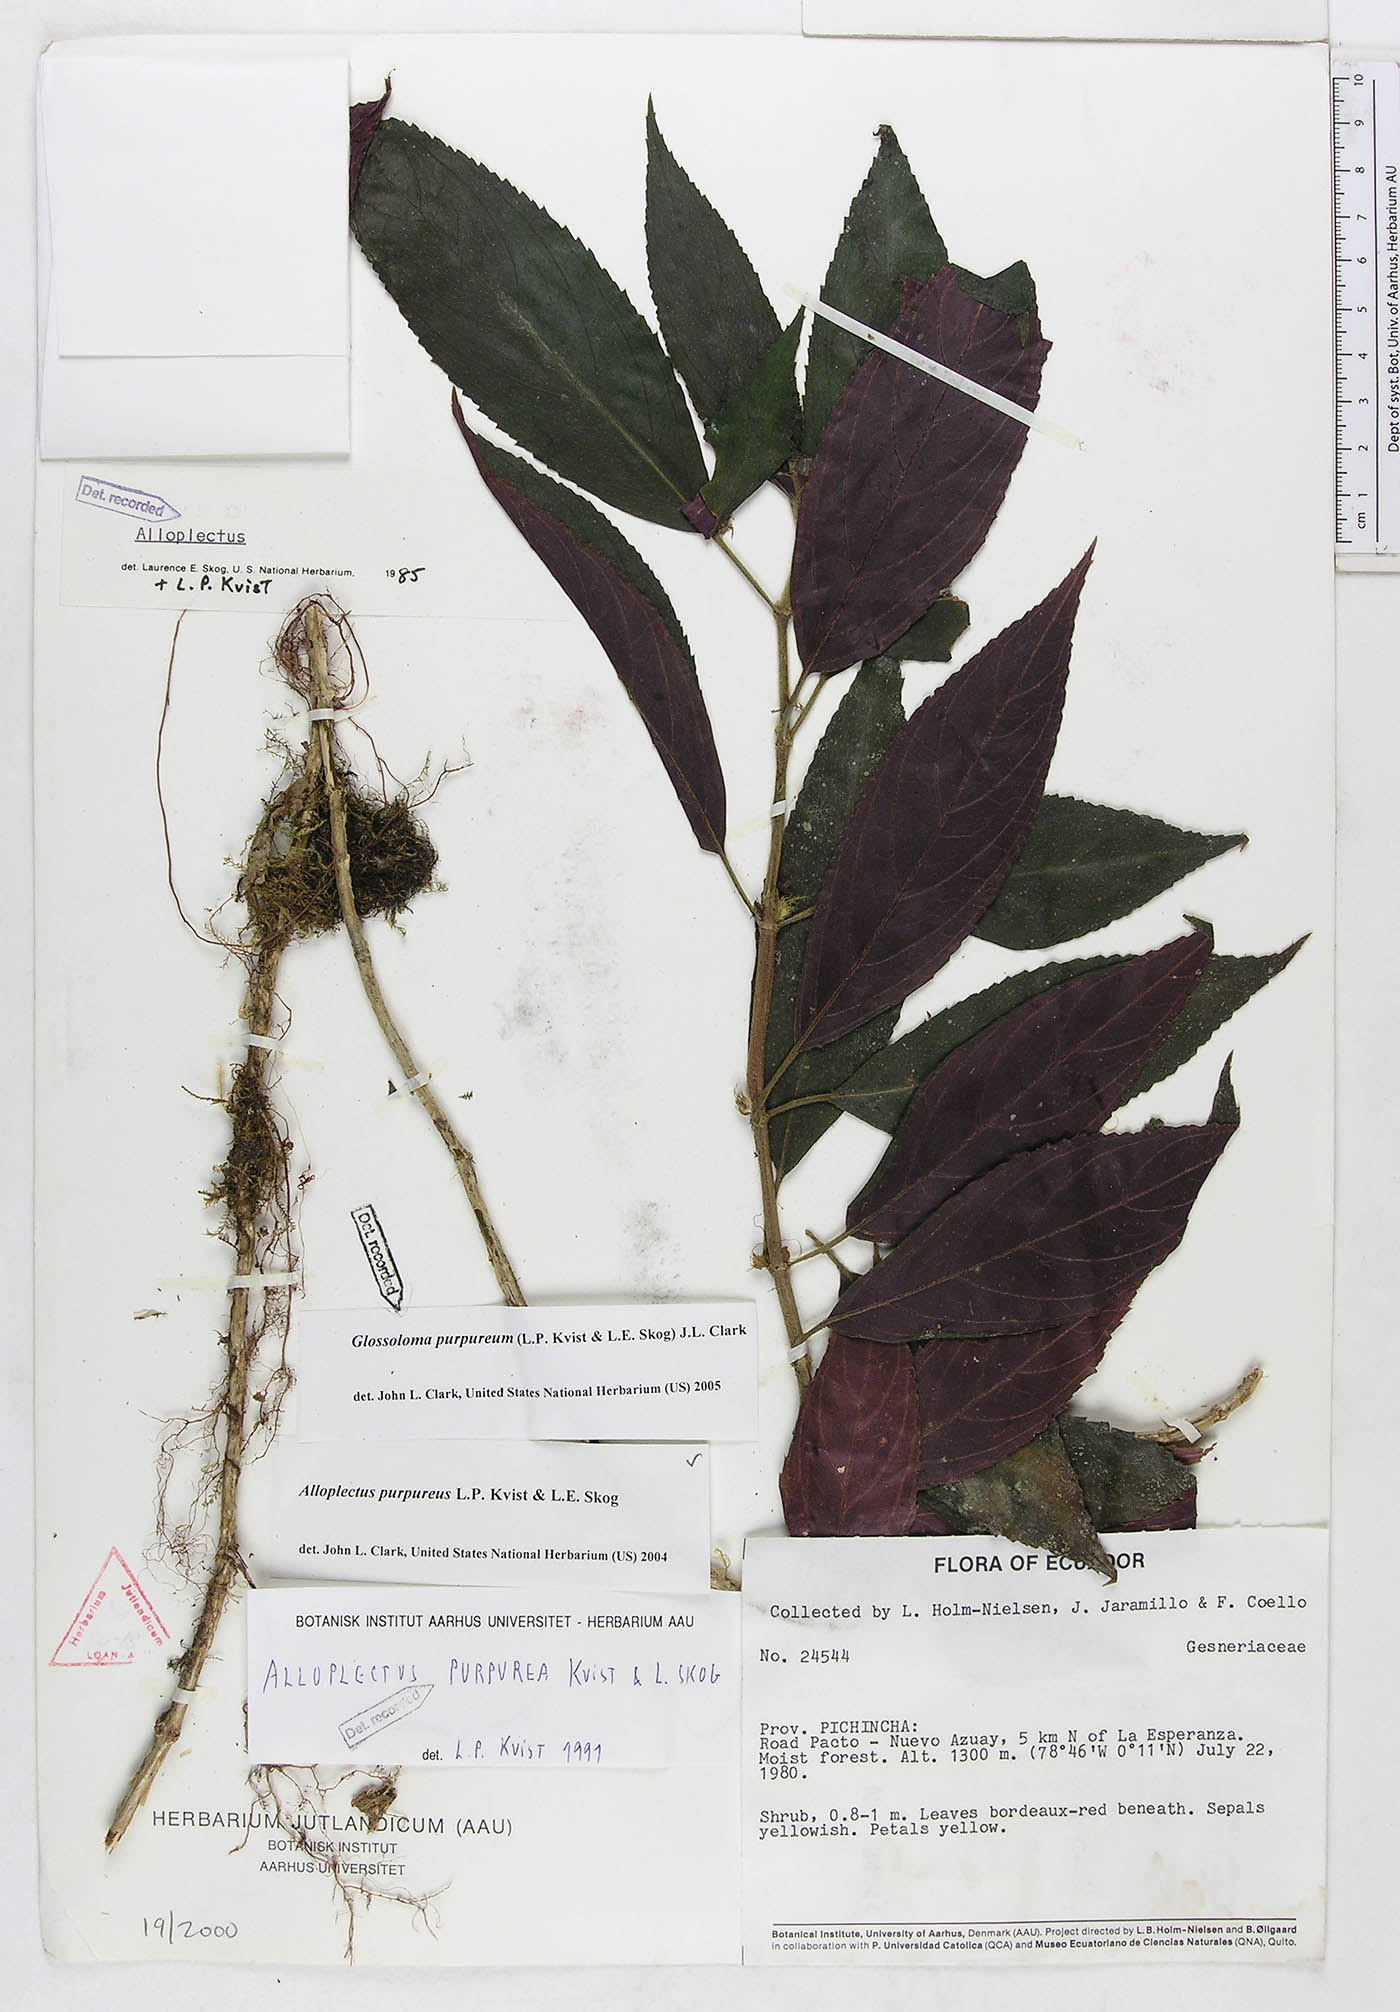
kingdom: Plantae
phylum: Tracheophyta
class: Magnoliopsida
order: Lamiales
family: Gesneriaceae
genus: Glossoloma
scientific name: Glossoloma purpureum
